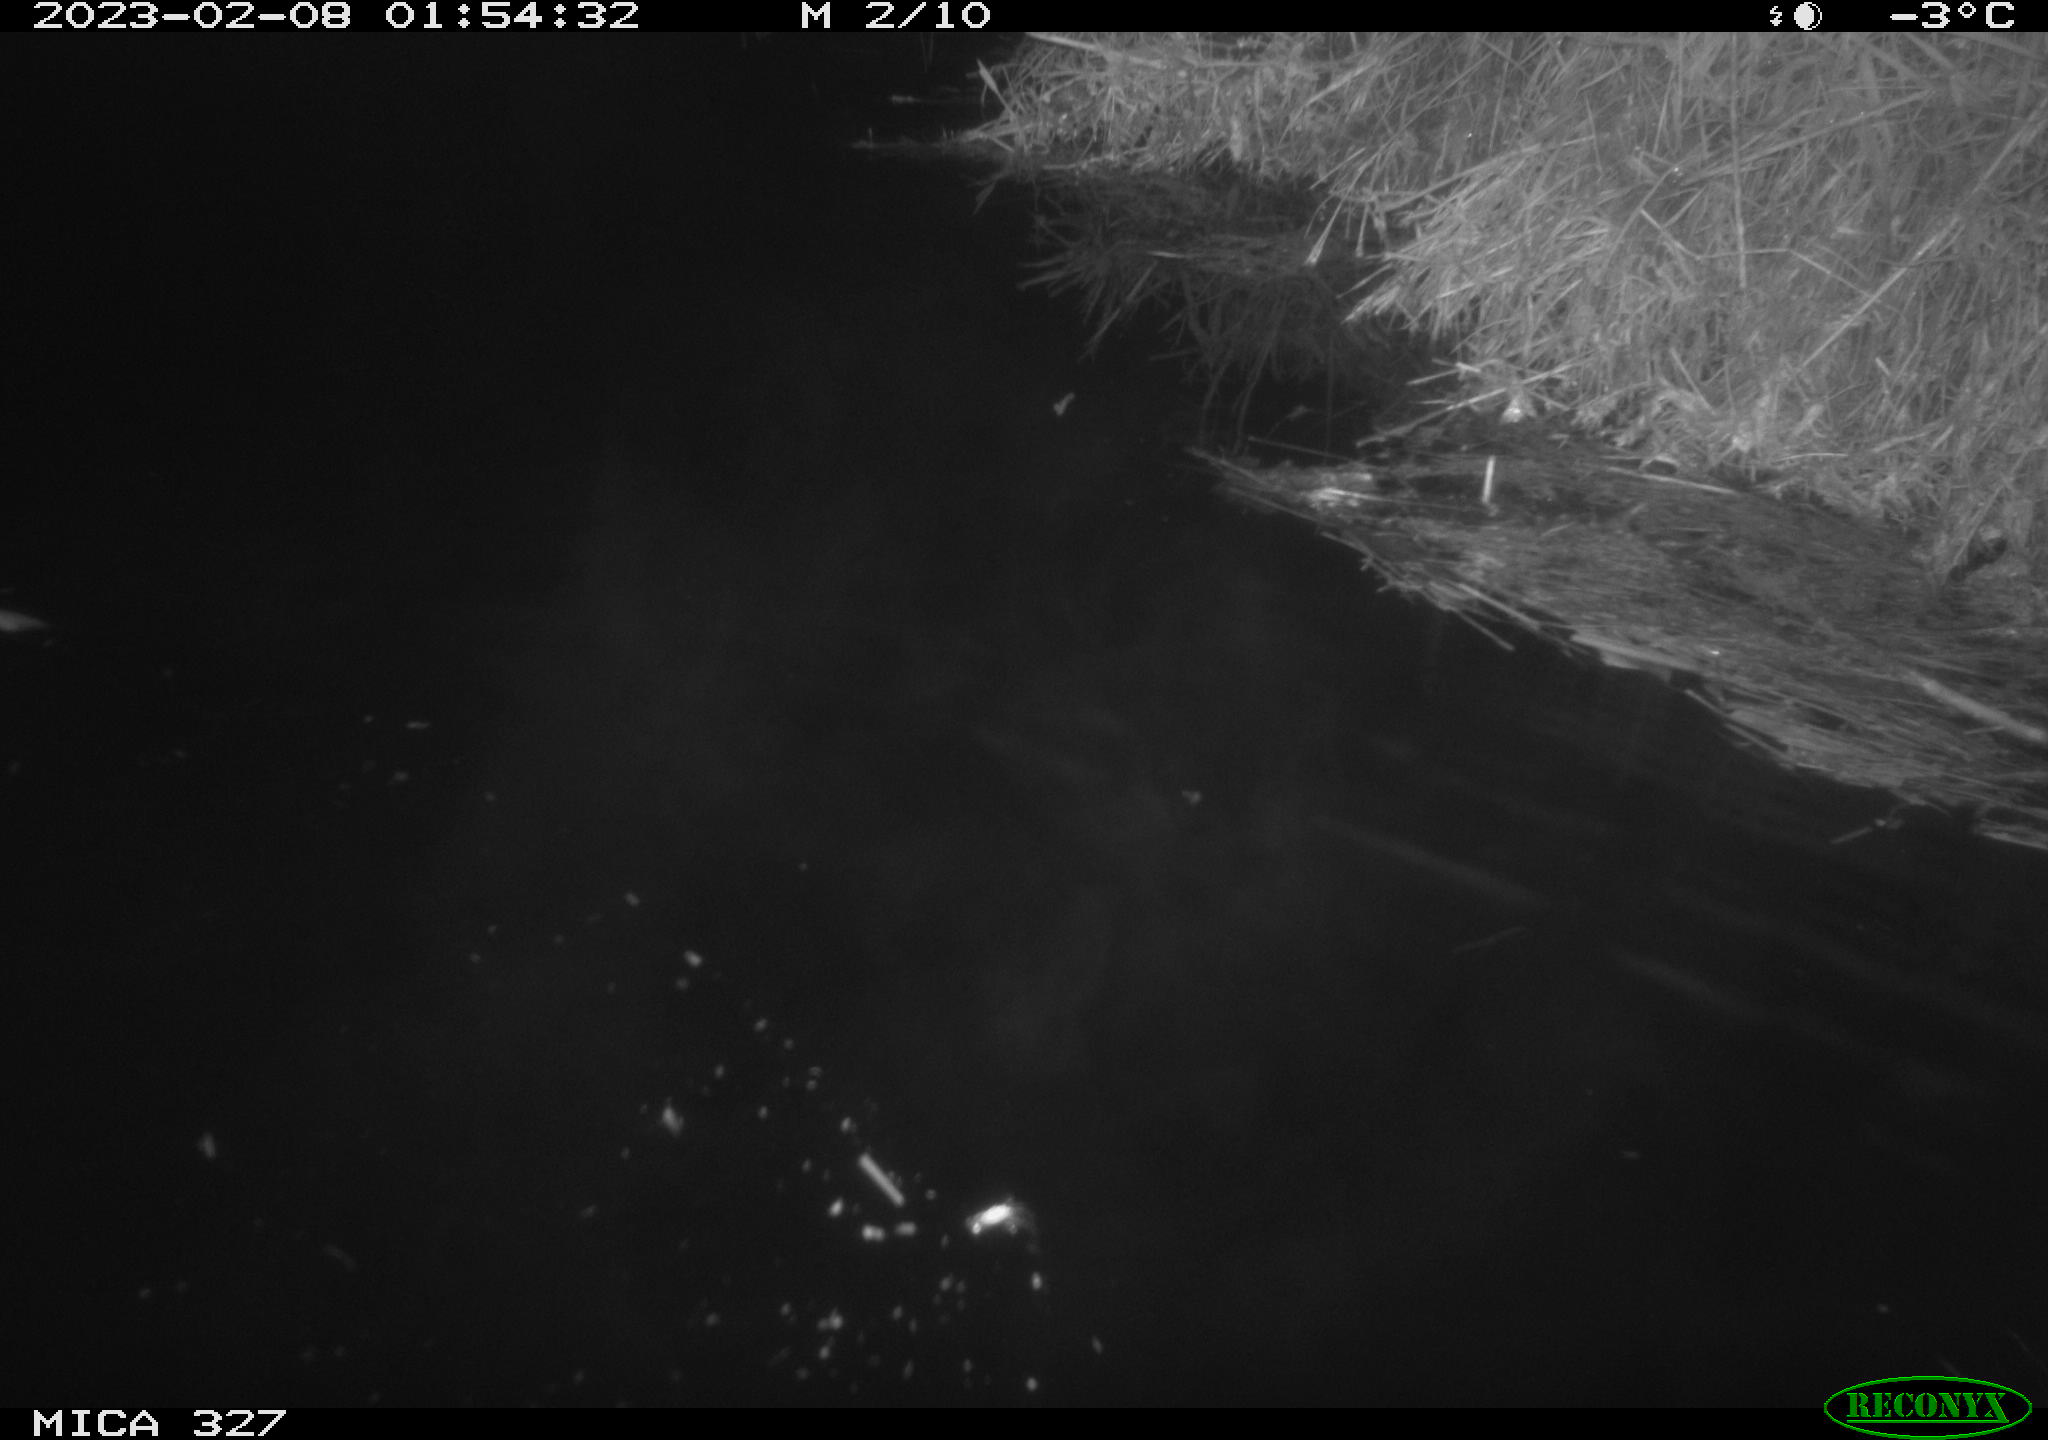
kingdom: Animalia
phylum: Chordata
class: Mammalia
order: Rodentia
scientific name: Rodentia
